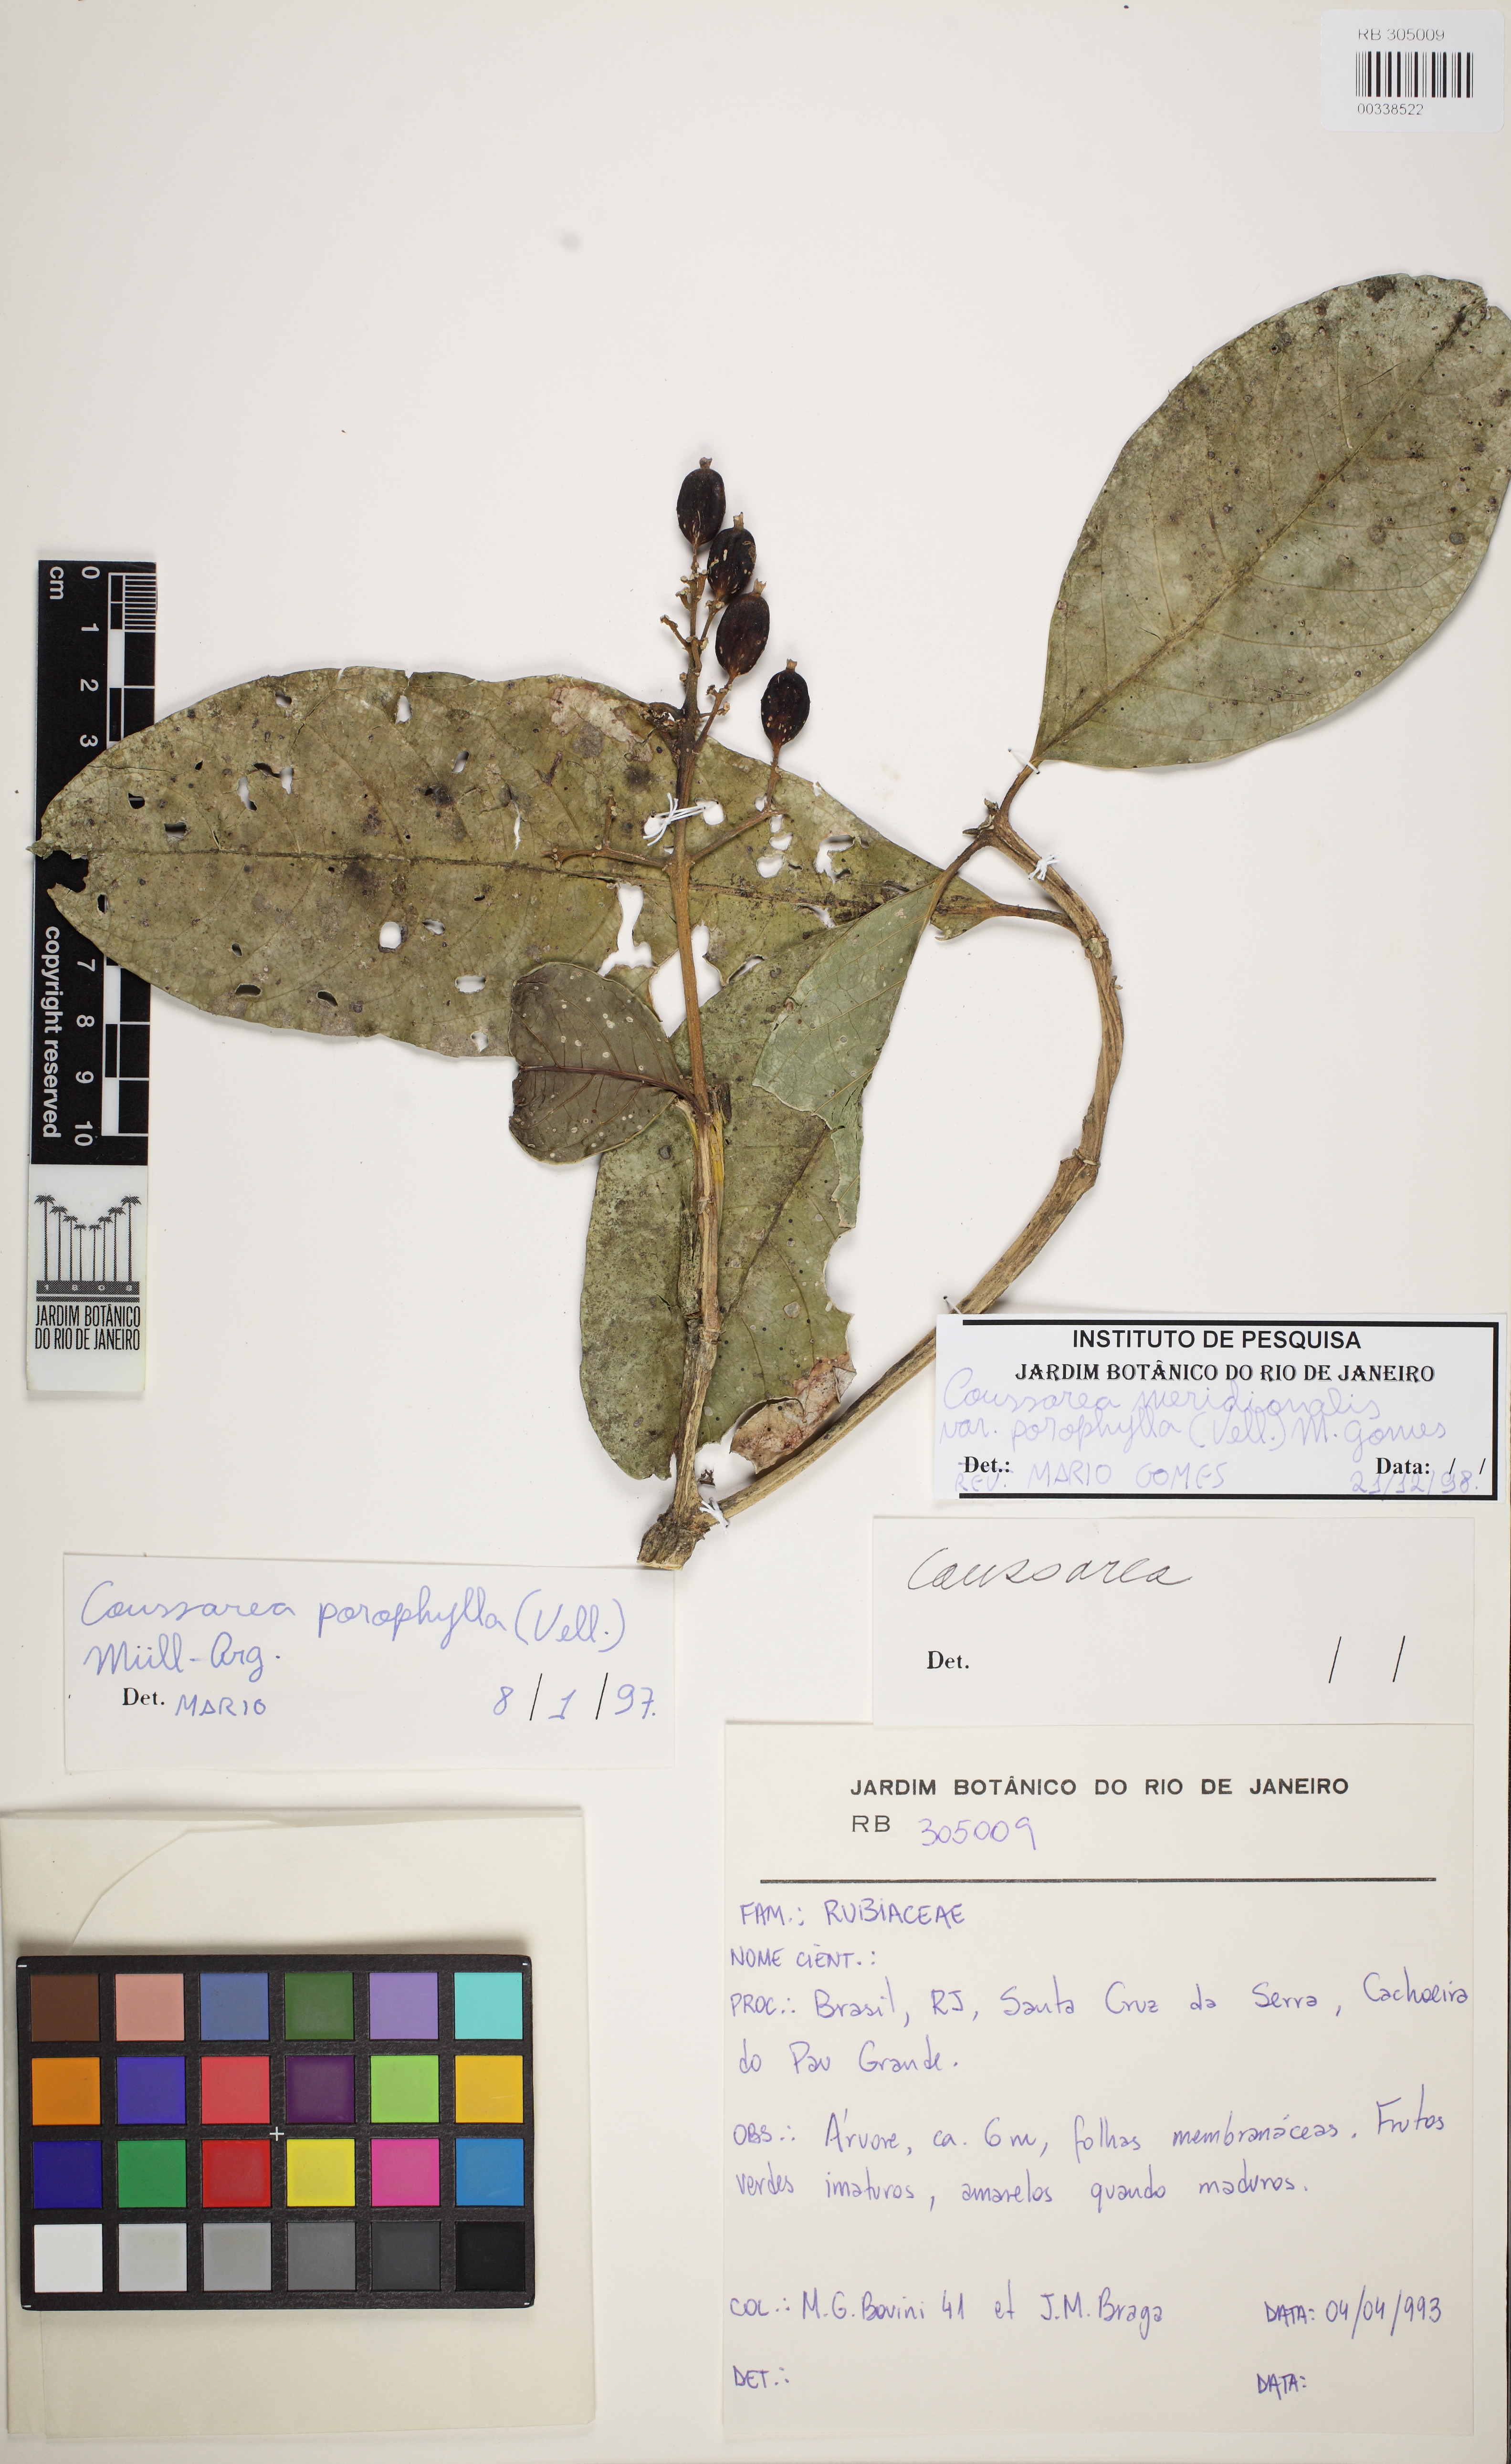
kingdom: Plantae
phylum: Tracheophyta
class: Magnoliopsida
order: Gentianales
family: Rubiaceae
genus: Coussarea
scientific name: Coussarea meridionalis
